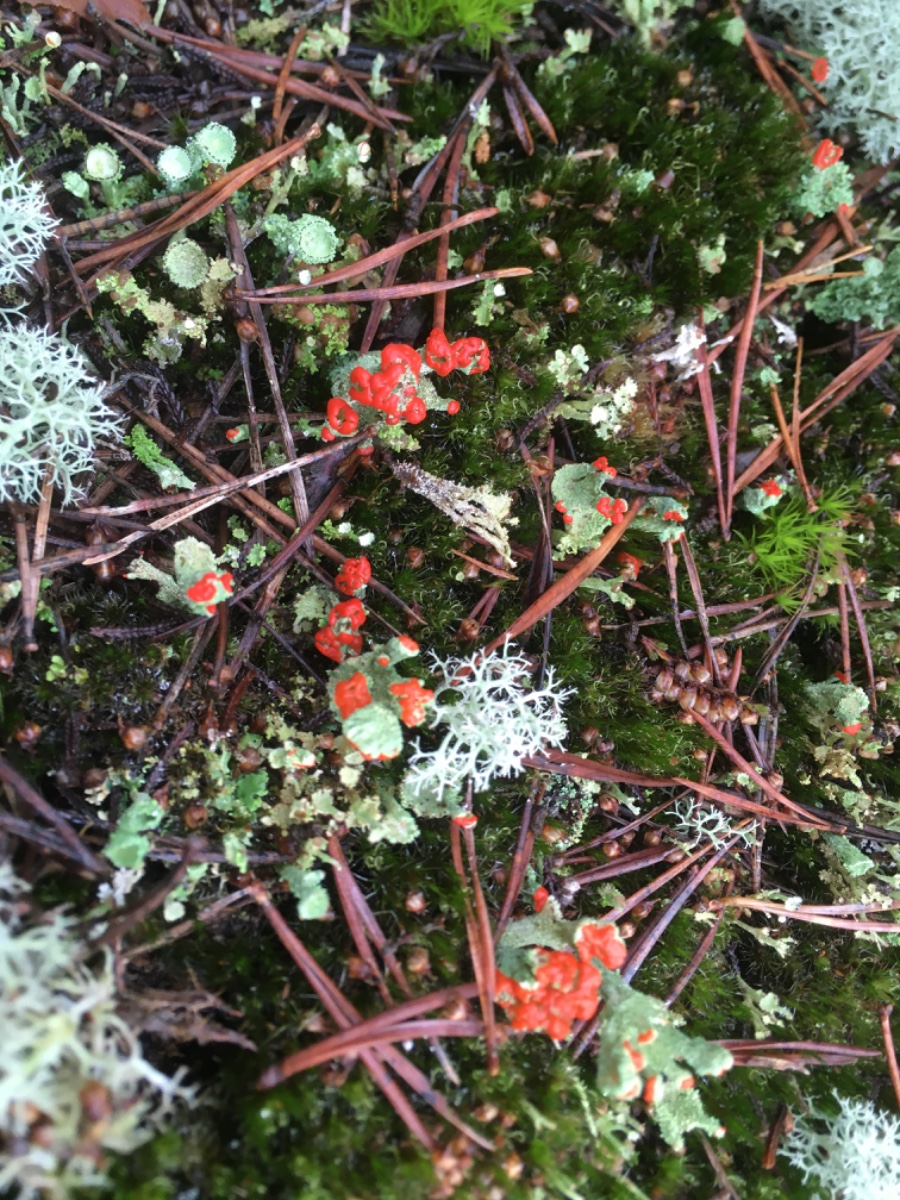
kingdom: Fungi
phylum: Ascomycota
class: Lecanoromycetes
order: Lecanorales
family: Cladoniaceae
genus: Cladonia
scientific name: Cladonia diversa
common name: rød bægerlav
